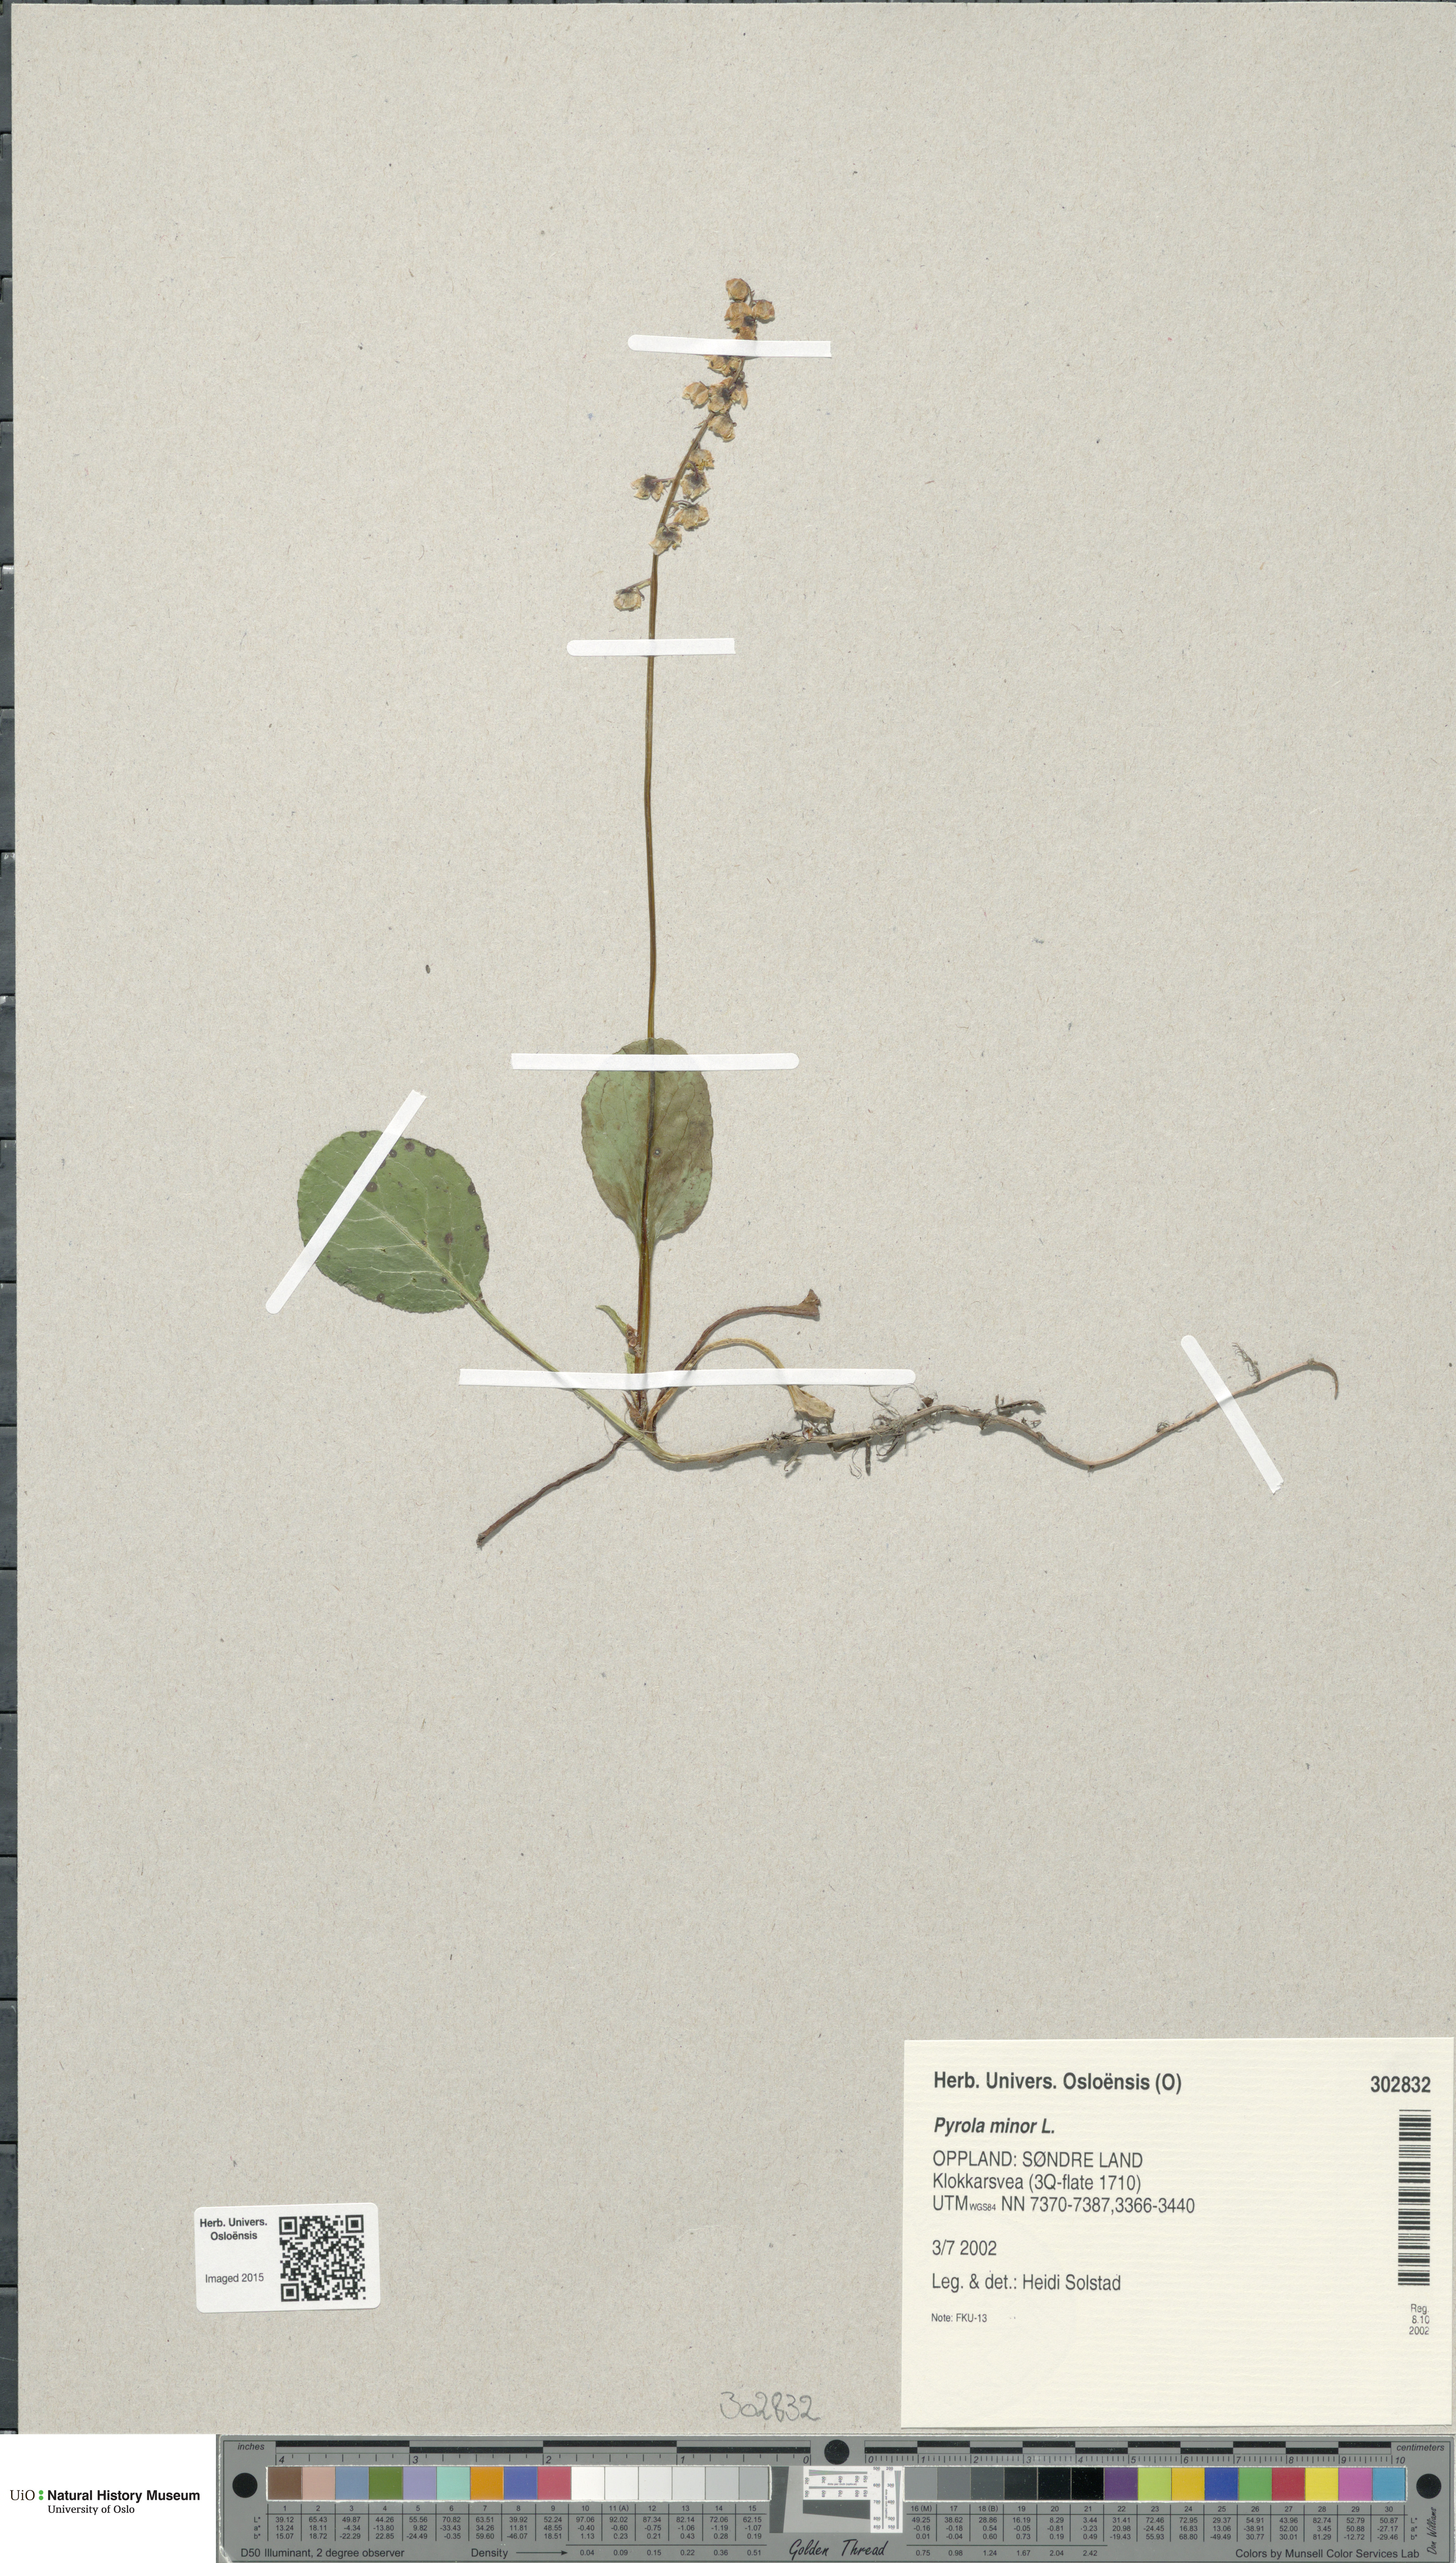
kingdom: Plantae
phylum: Tracheophyta
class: Magnoliopsida
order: Ericales
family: Ericaceae
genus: Pyrola
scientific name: Pyrola minor
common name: Common wintergreen
